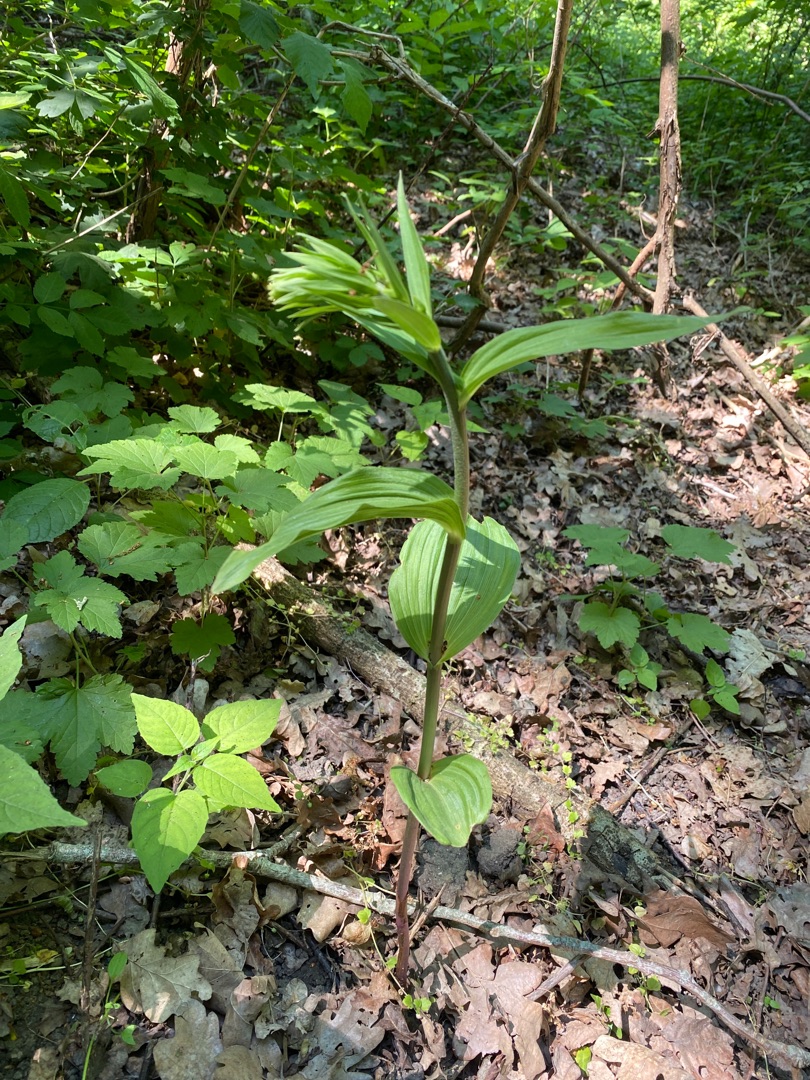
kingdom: Plantae
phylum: Tracheophyta
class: Liliopsida
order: Asparagales
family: Orchidaceae
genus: Epipactis
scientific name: Epipactis helleborine
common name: Skov-hullæbe
